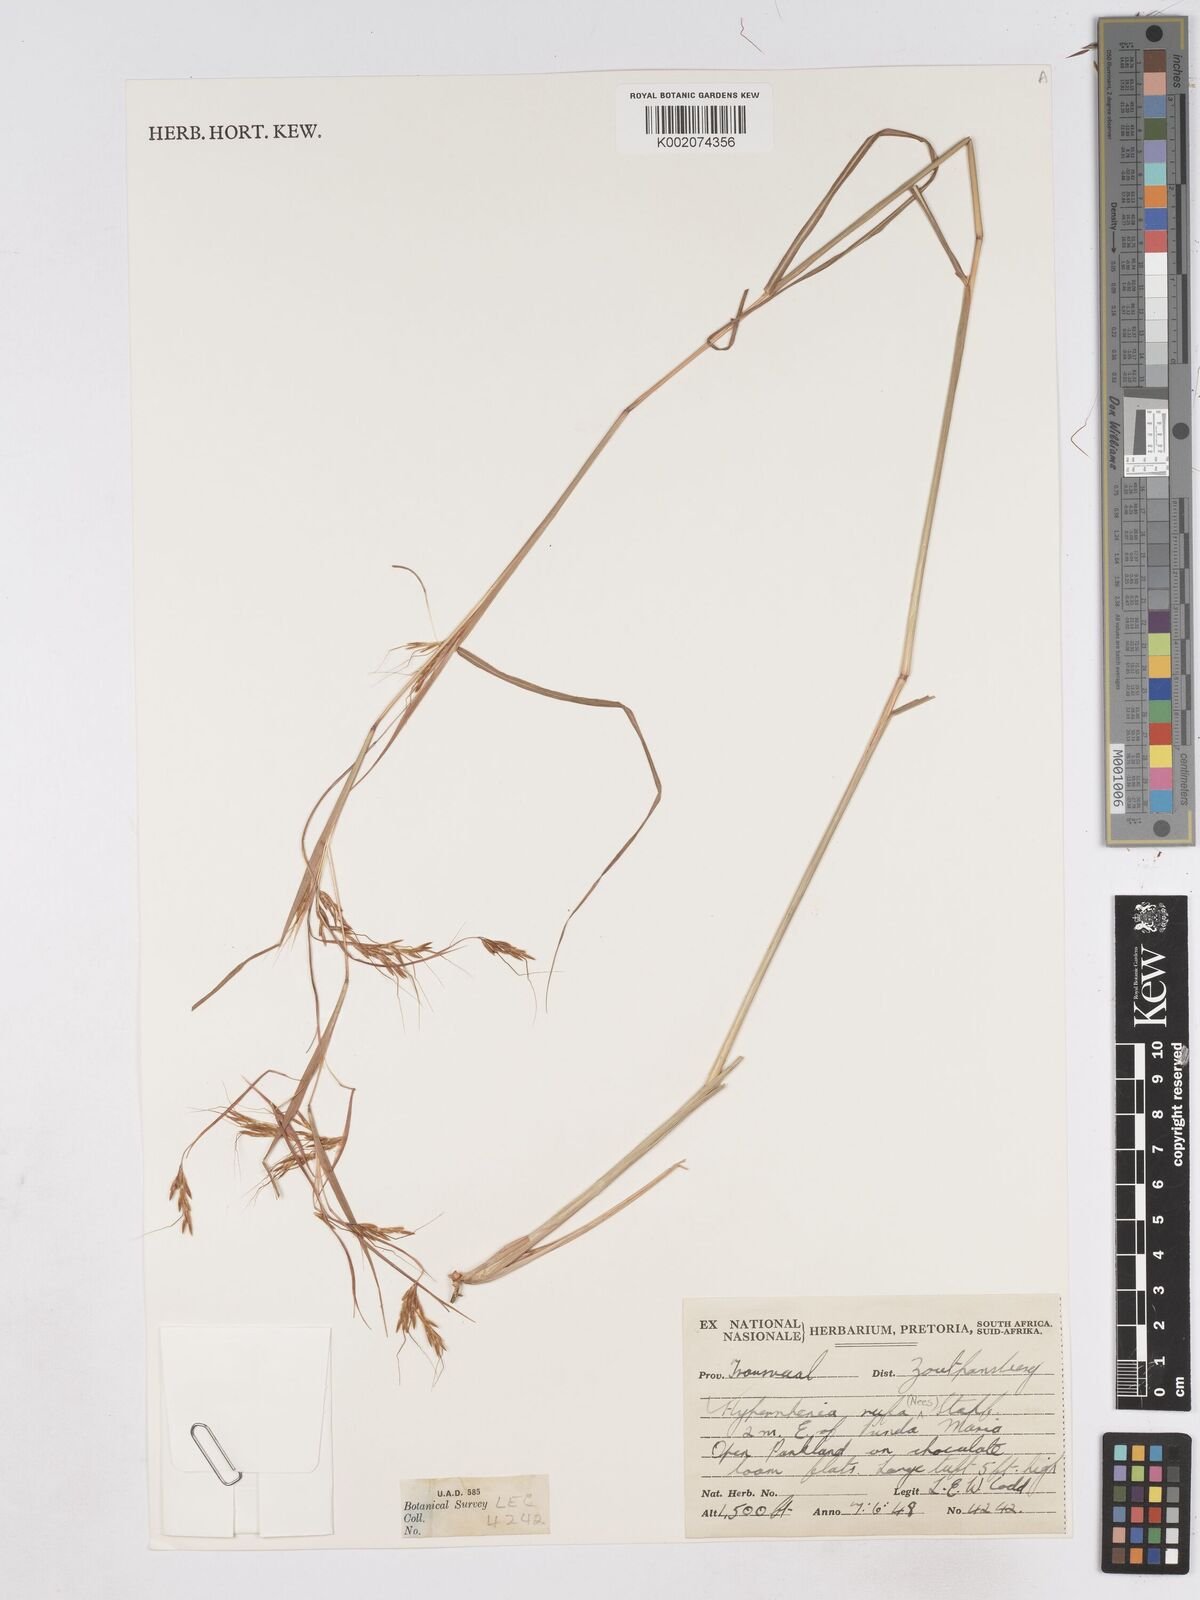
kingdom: Plantae
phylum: Tracheophyta
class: Liliopsida
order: Poales
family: Poaceae
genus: Hyparrhenia
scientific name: Hyparrhenia rufa
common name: Jaraguagrass
